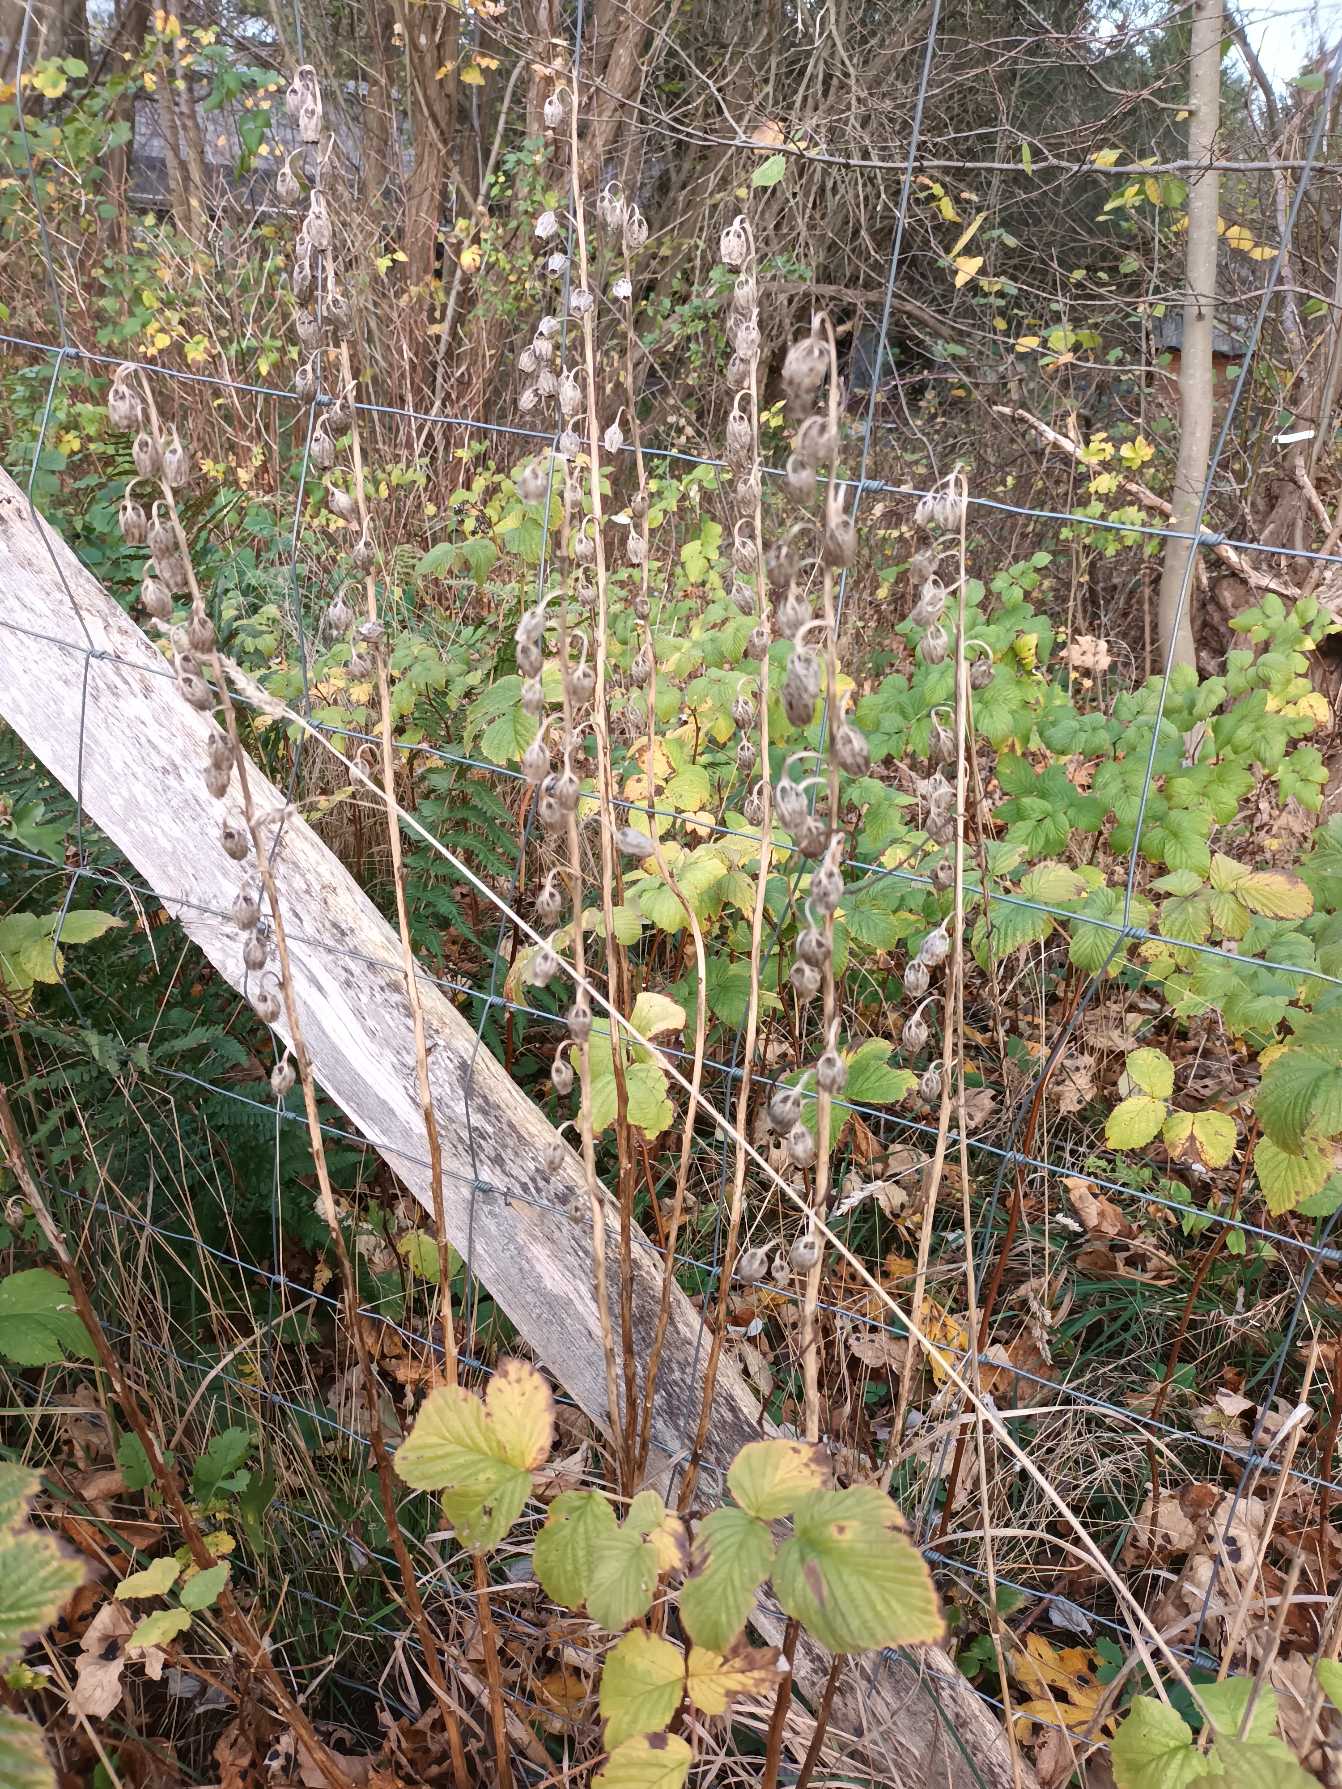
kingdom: Plantae
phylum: Tracheophyta
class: Magnoliopsida
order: Asterales
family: Campanulaceae
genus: Campanula
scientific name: Campanula latifolia
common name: Bredbladet klokke
